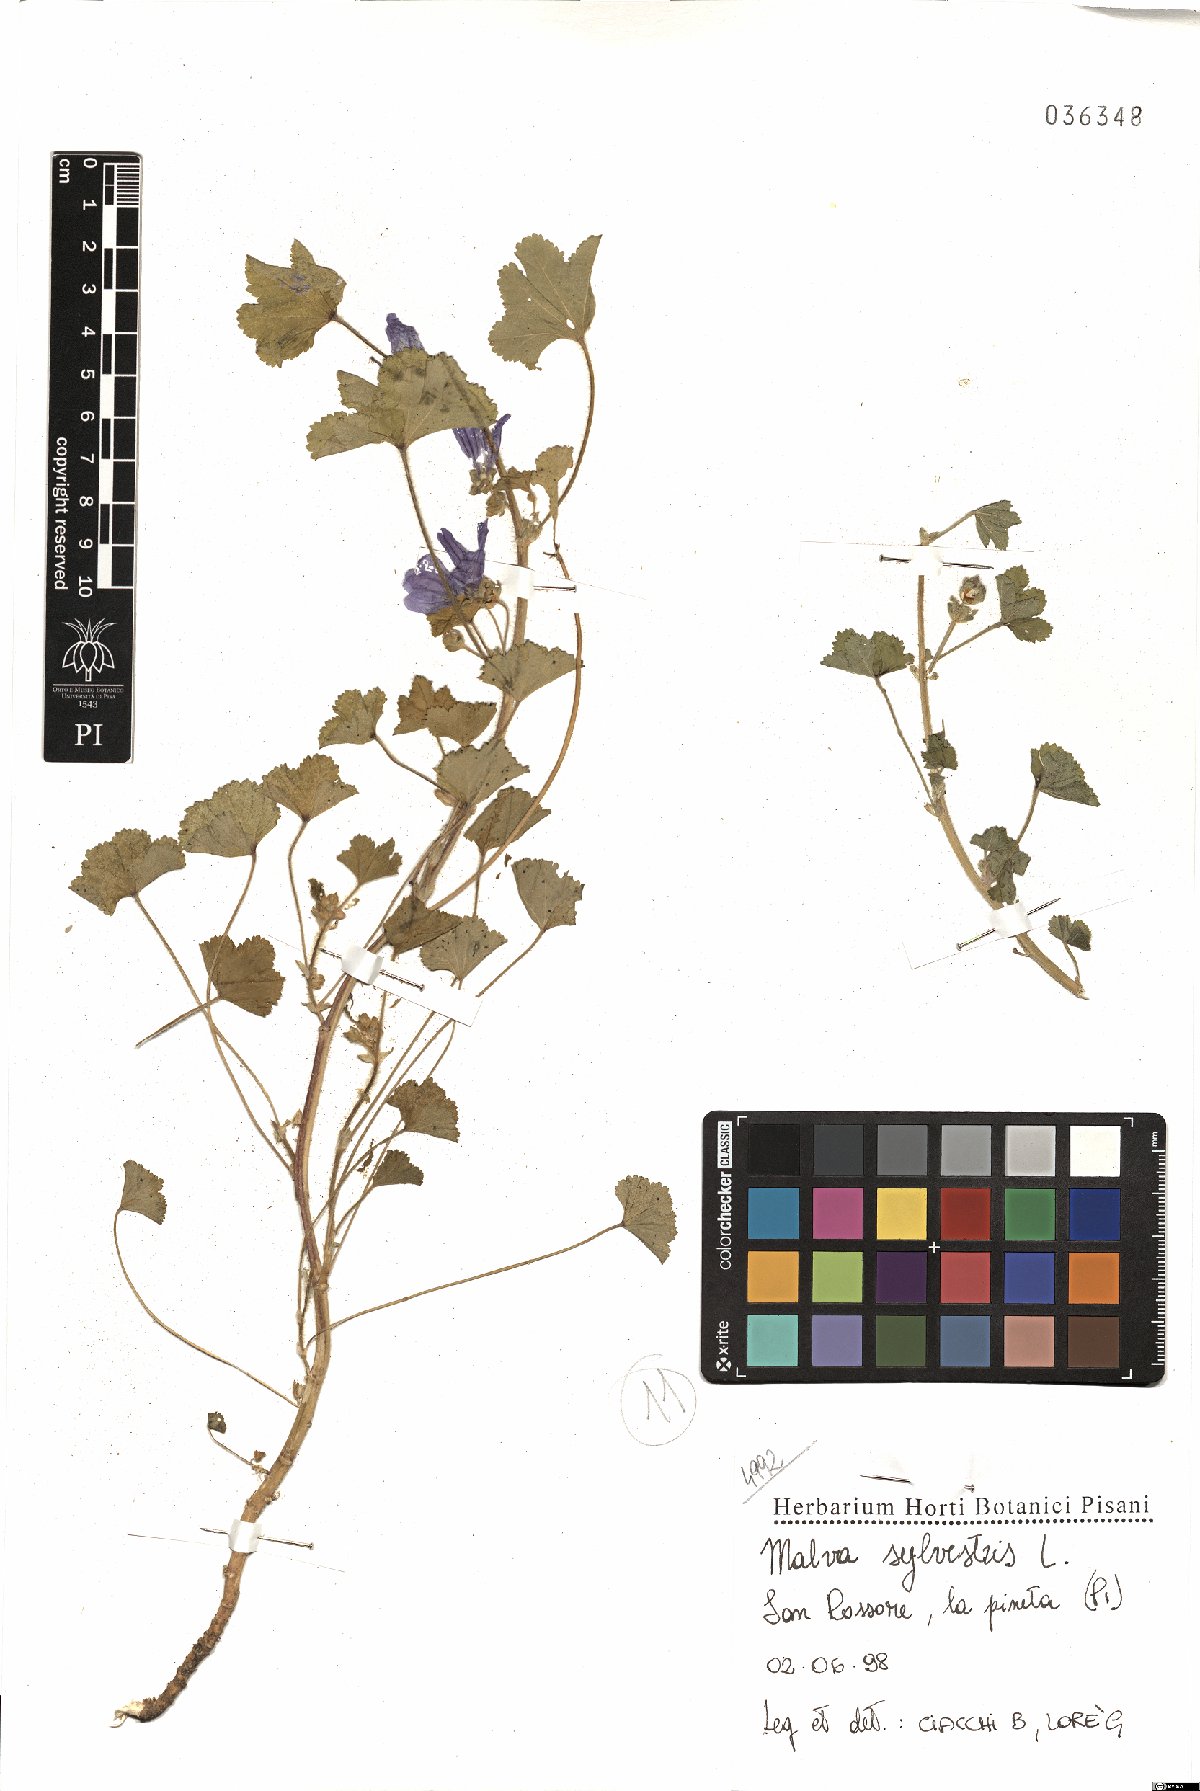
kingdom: Plantae
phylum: Tracheophyta
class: Magnoliopsida
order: Malvales
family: Malvaceae
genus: Malva
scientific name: Malva sylvestris
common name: Common mallow
